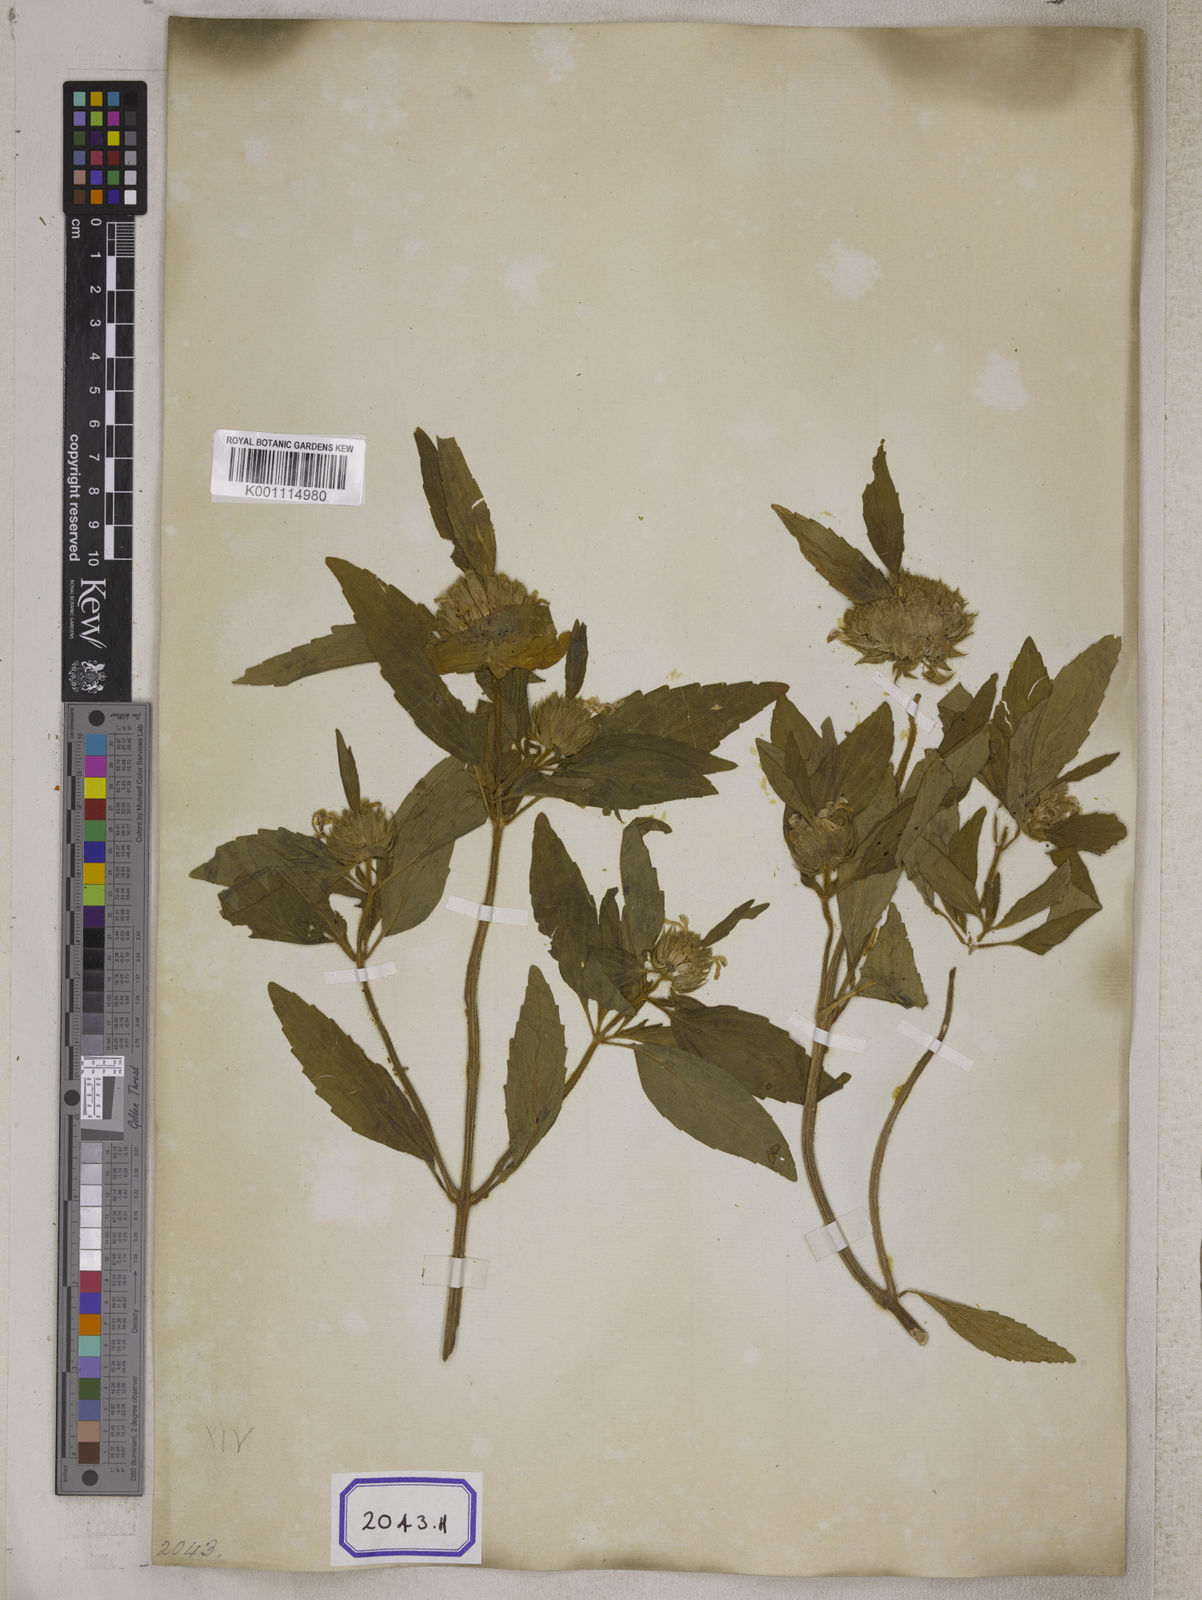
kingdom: Plantae
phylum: Tracheophyta
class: Magnoliopsida
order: Lamiales
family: Lamiaceae
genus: Leucas
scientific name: Leucas
